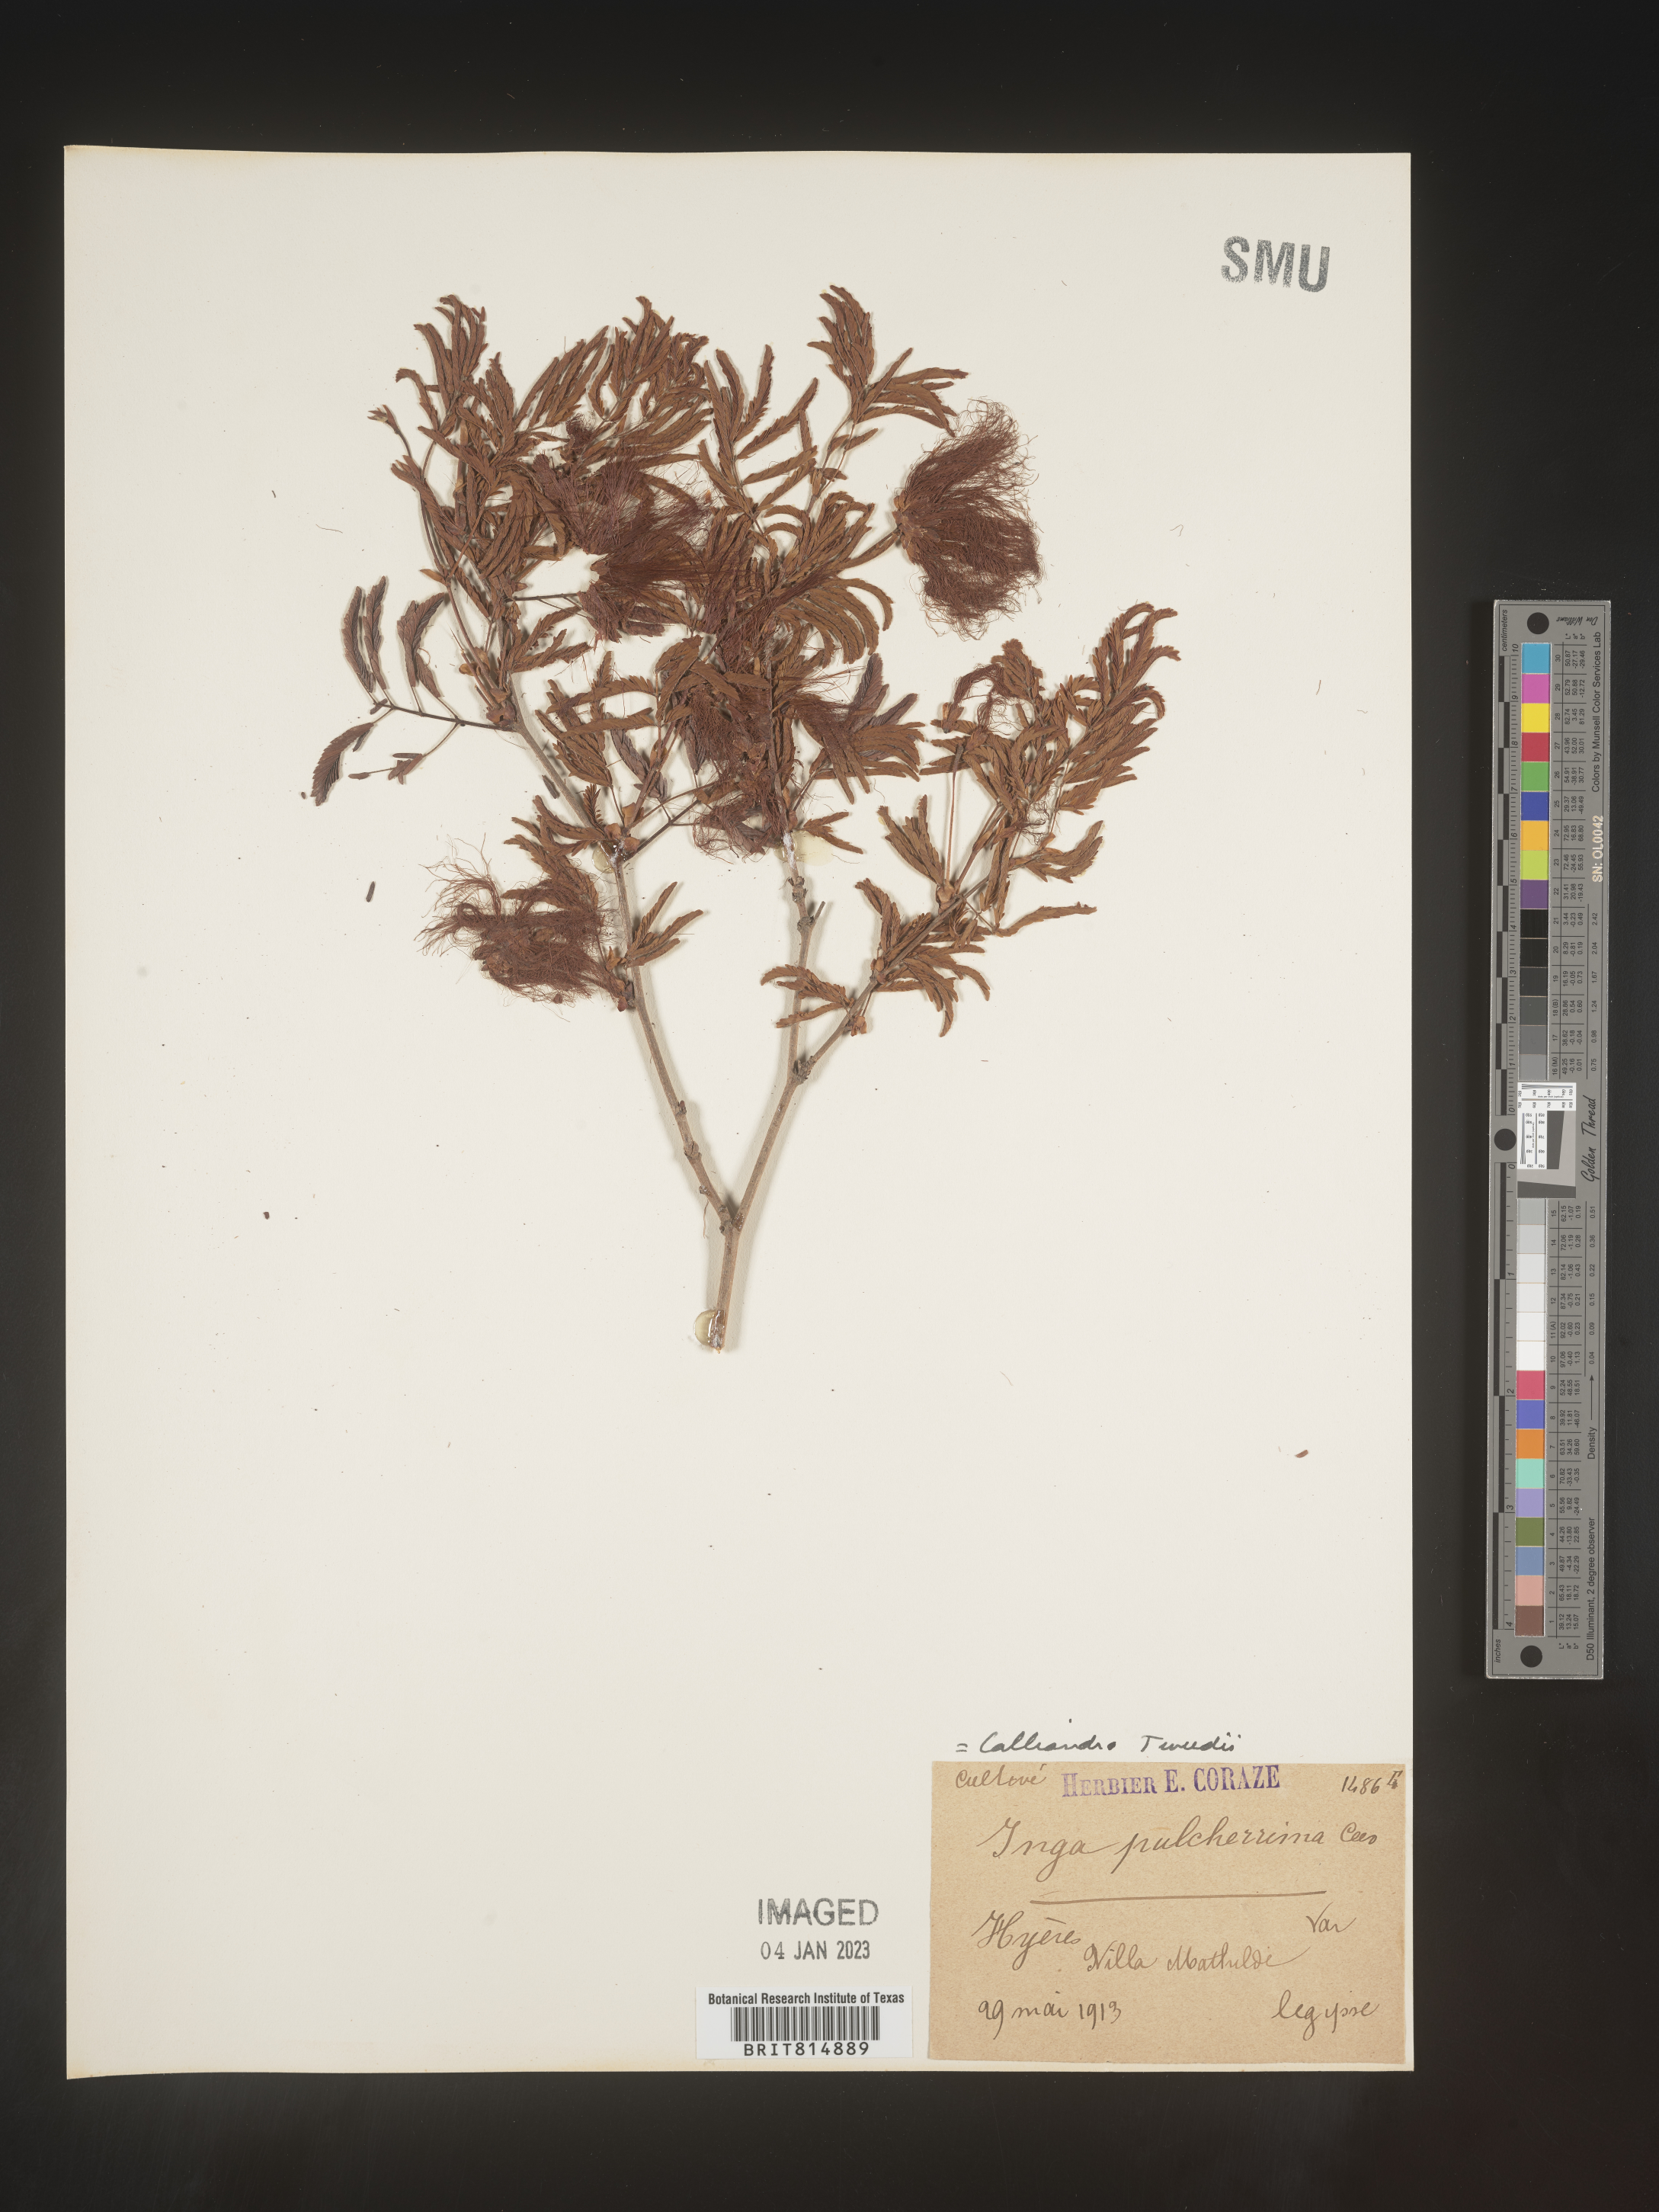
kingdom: Plantae
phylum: Tracheophyta
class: Magnoliopsida
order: Fabales
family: Fabaceae
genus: Calliandra
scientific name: Calliandra
